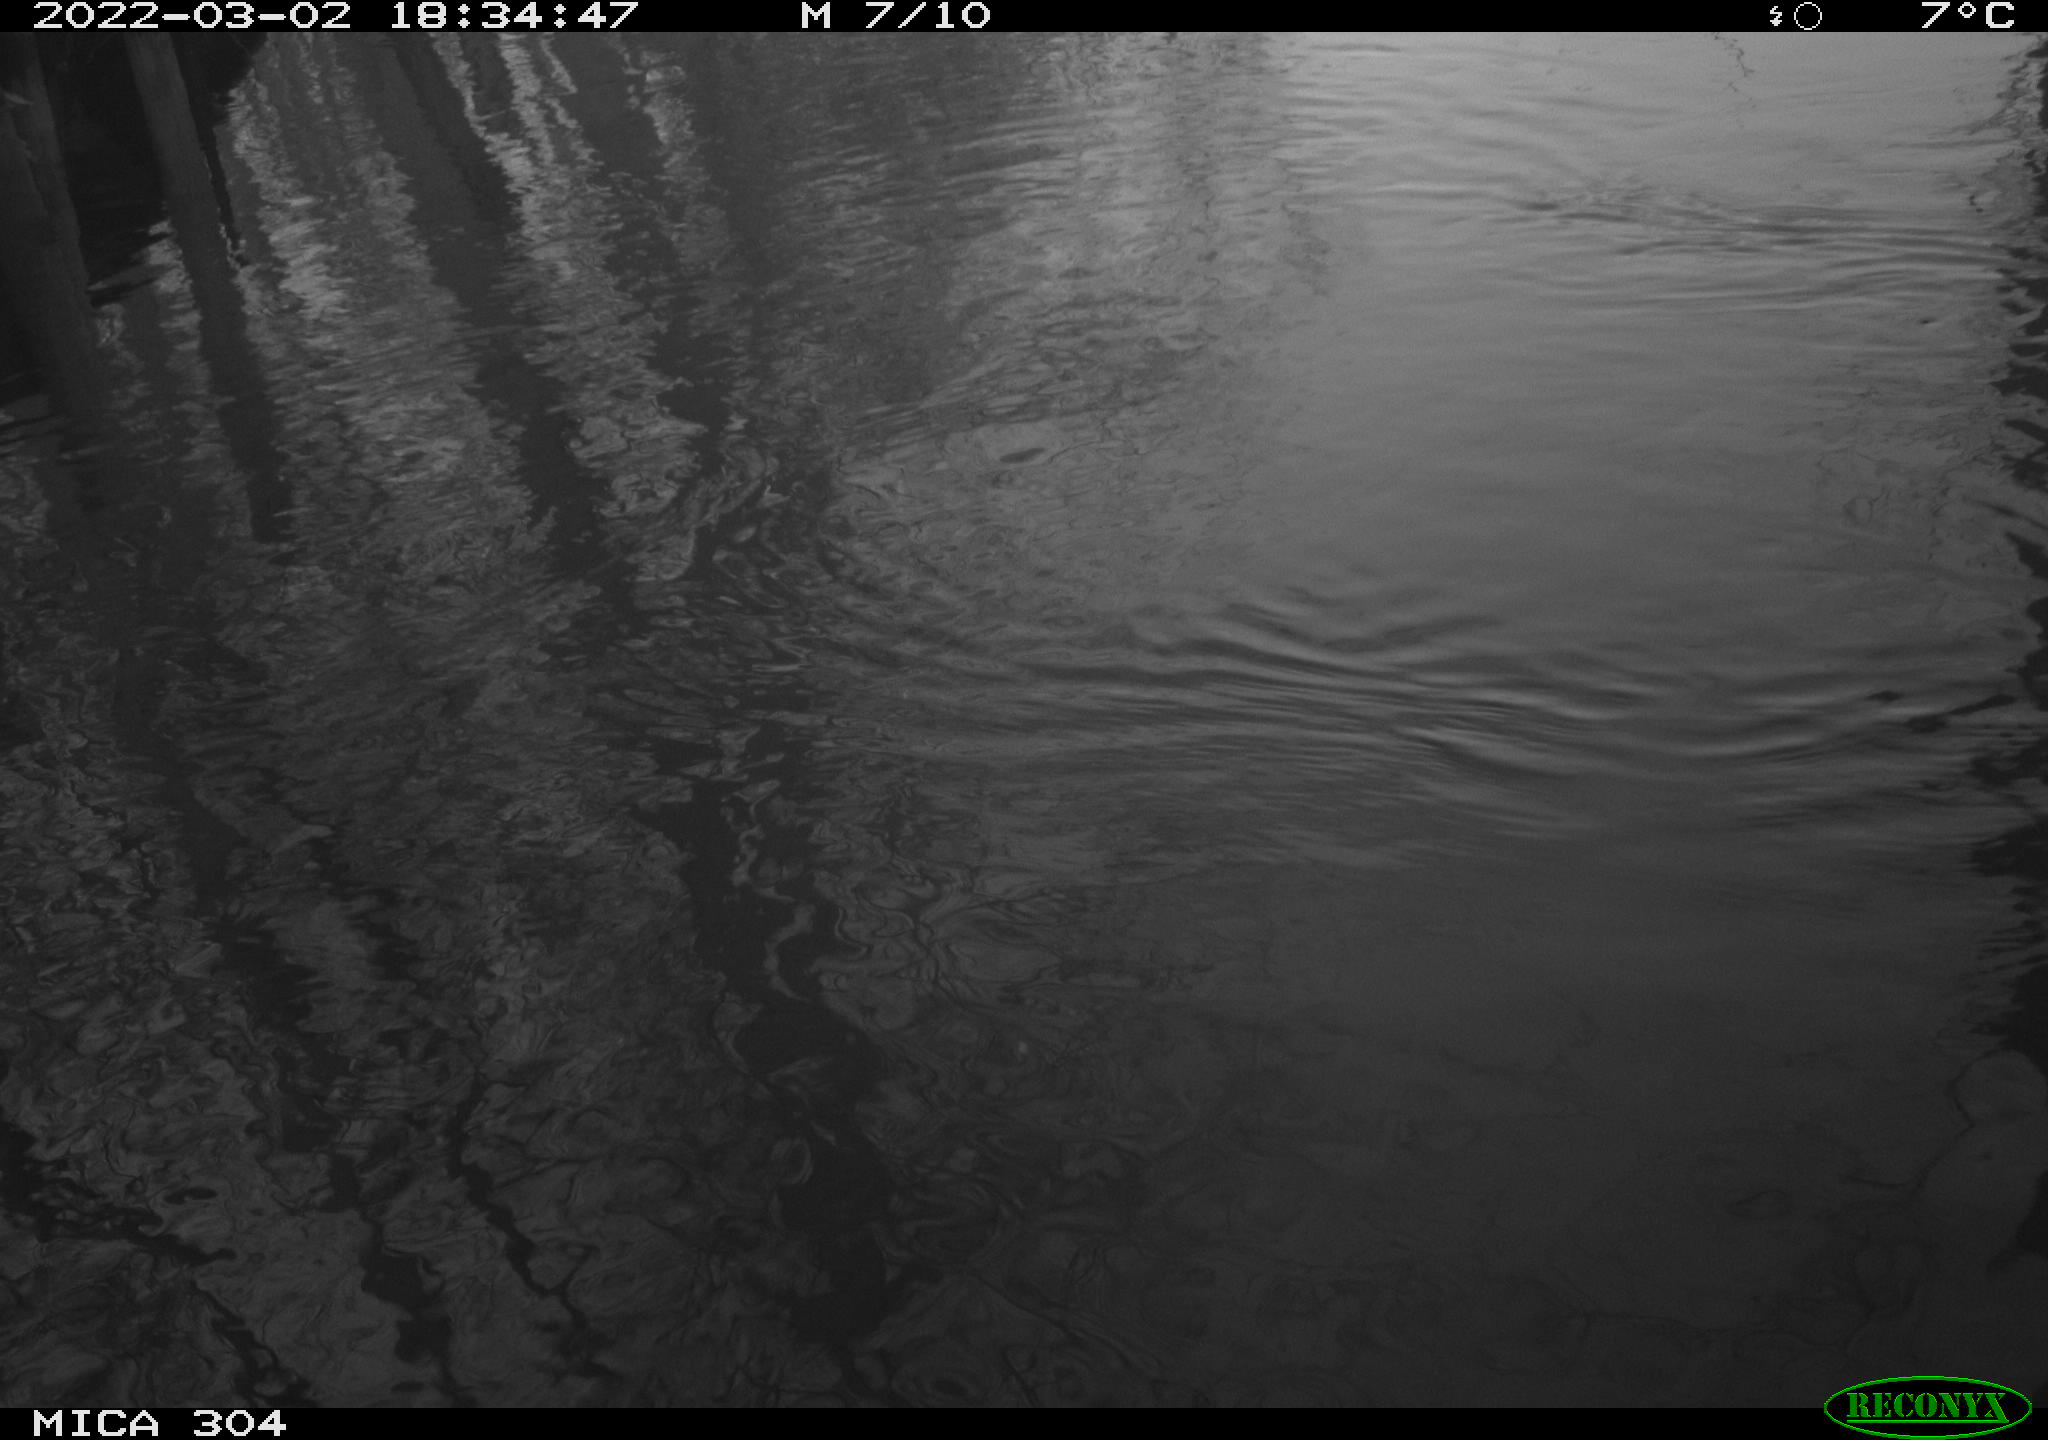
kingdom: Animalia
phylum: Chordata
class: Aves
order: Gruiformes
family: Rallidae
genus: Gallinula
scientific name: Gallinula chloropus
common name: Common moorhen
